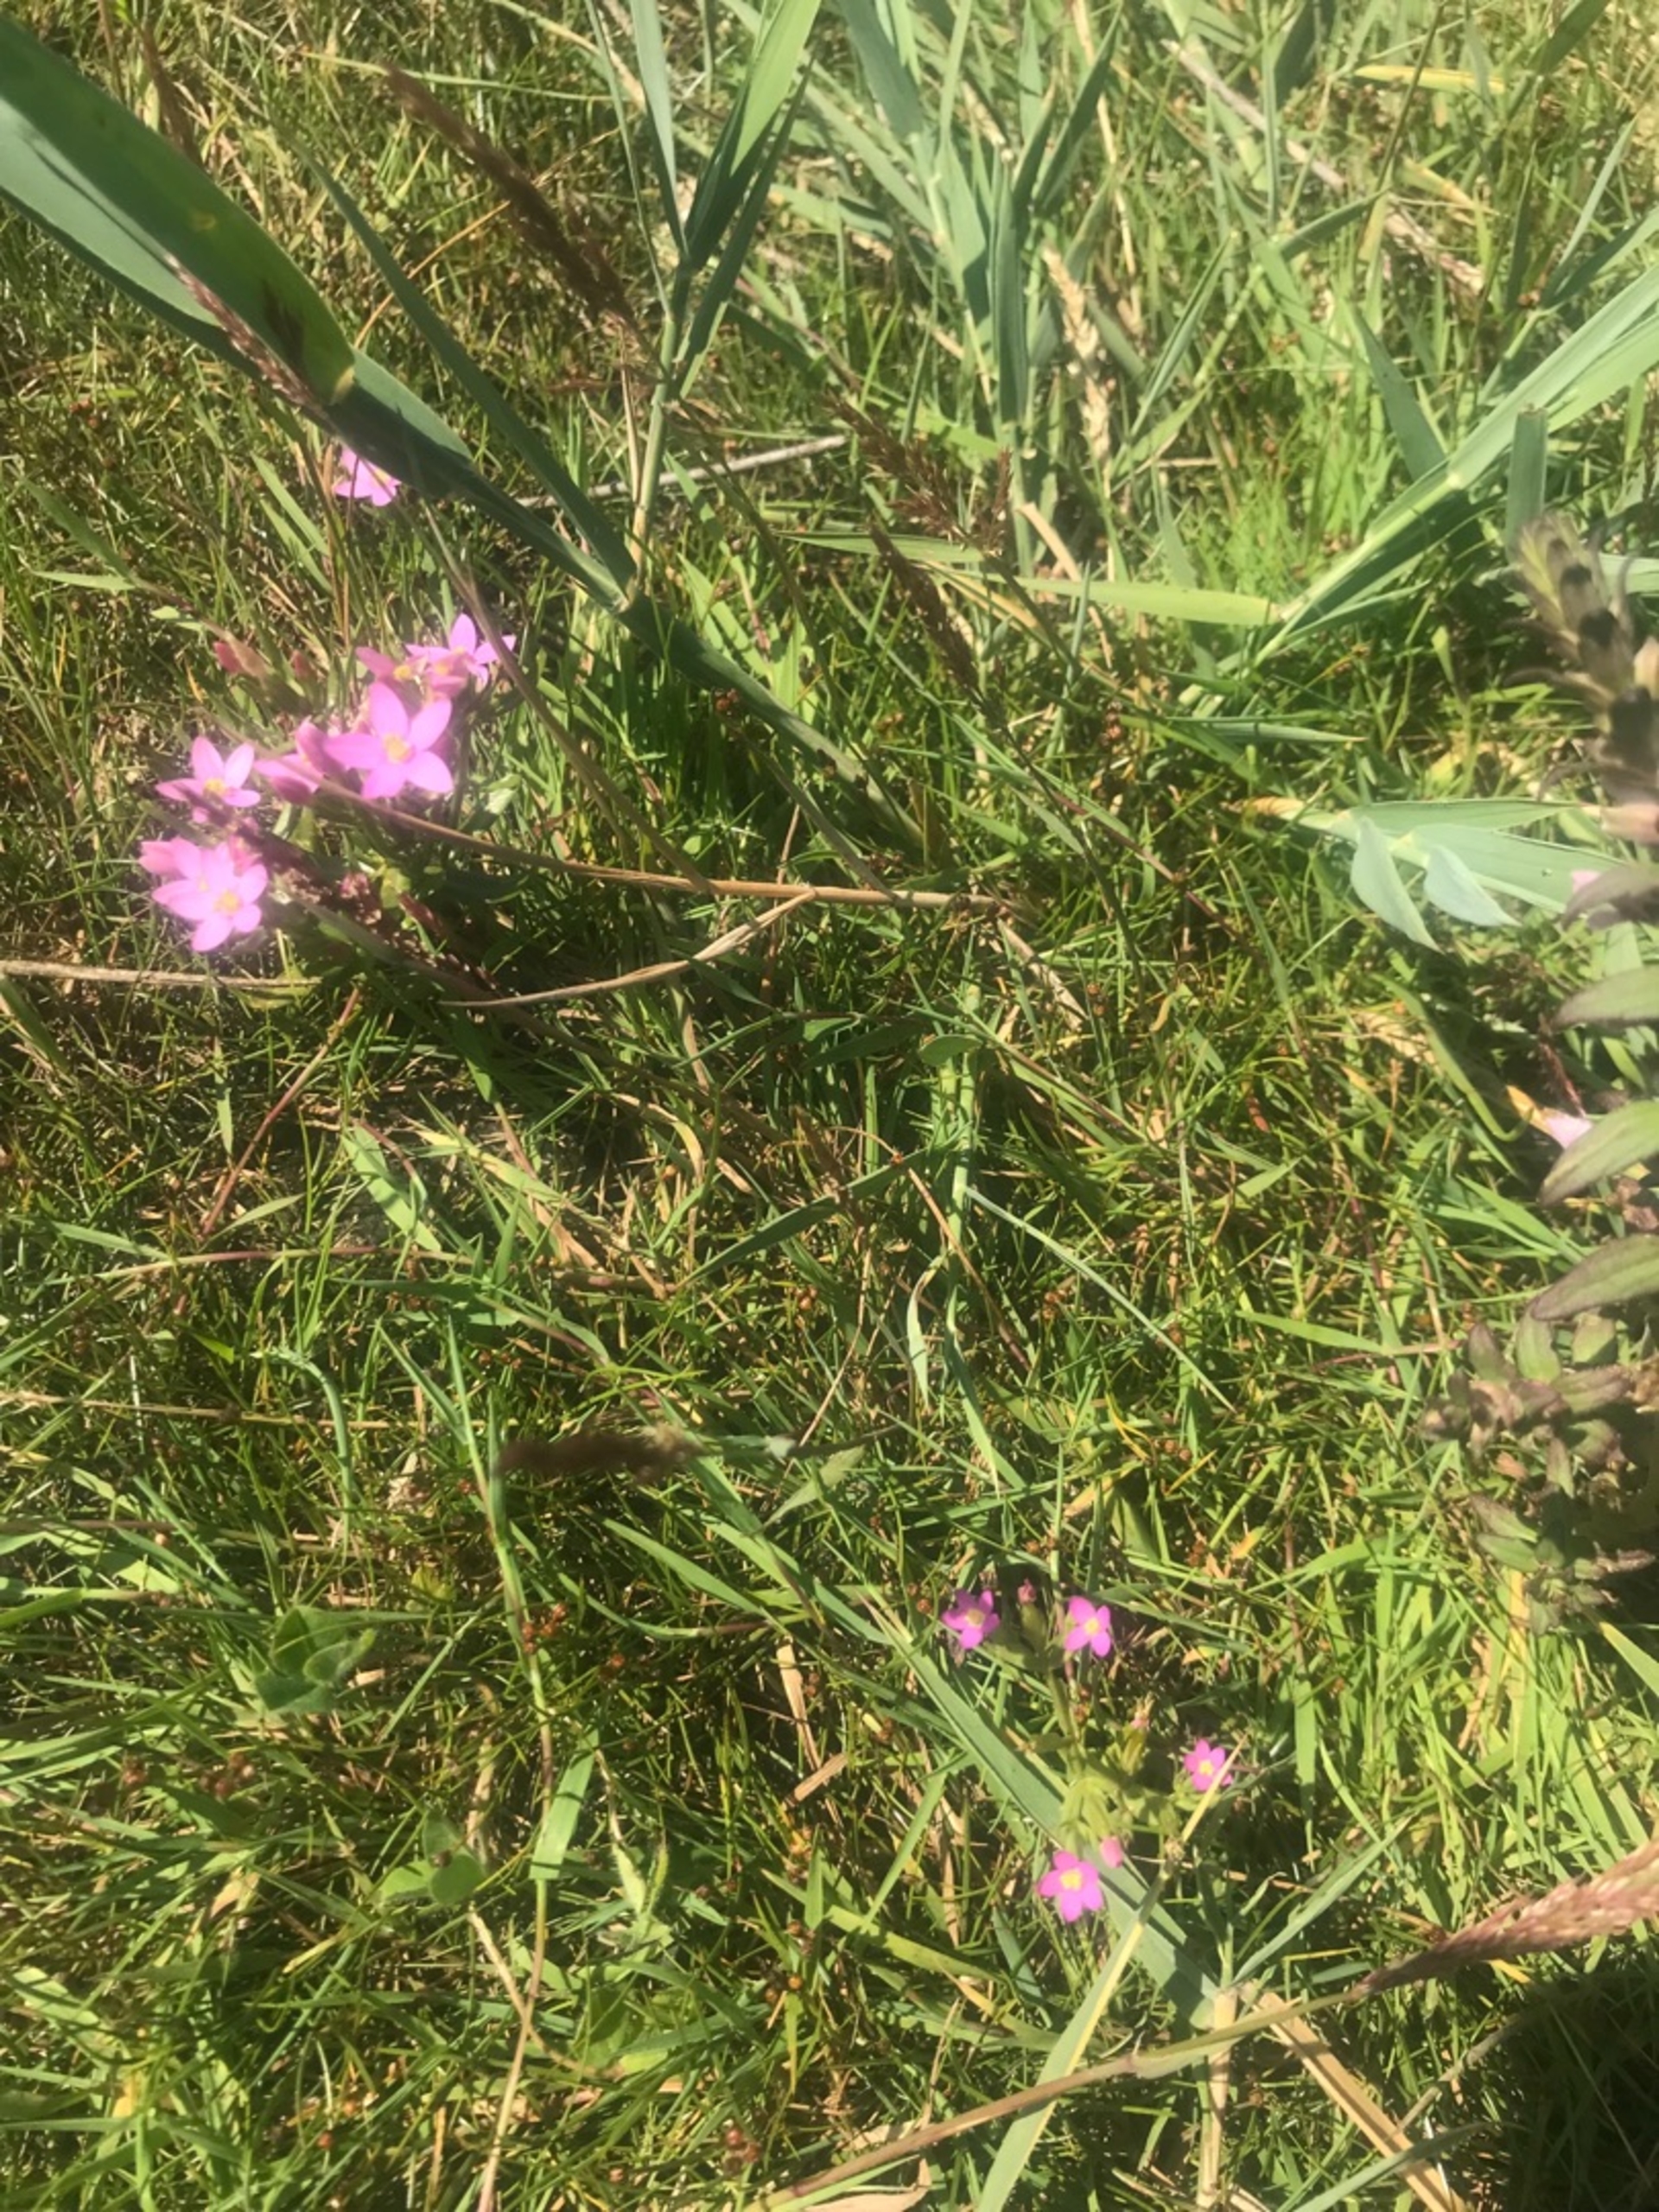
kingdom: Plantae
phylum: Tracheophyta
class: Magnoliopsida
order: Gentianales
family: Gentianaceae
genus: Centaurium
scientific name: Centaurium pulchellum
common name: Liden tusindgylden
